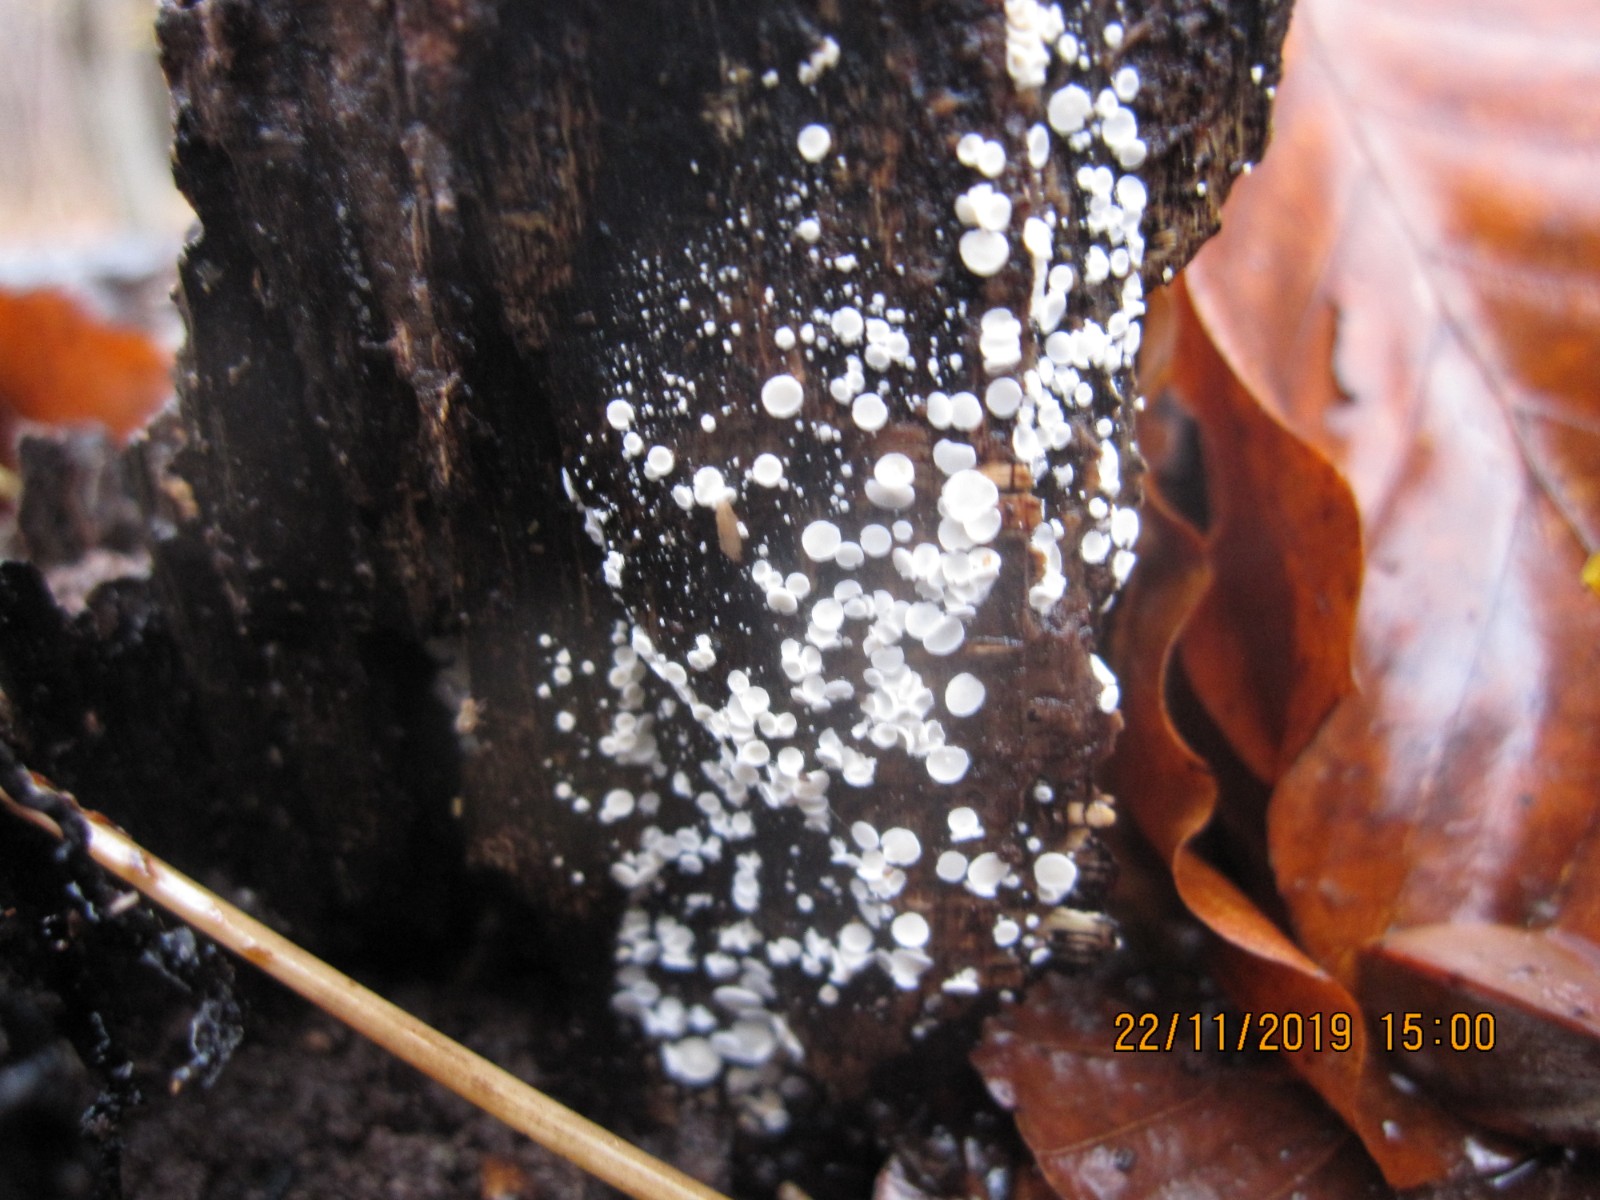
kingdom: Fungi
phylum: Ascomycota
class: Leotiomycetes
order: Helotiales
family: Lachnaceae
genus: Lachnum
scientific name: Lachnum impudicum
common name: vinter-frynseskive
